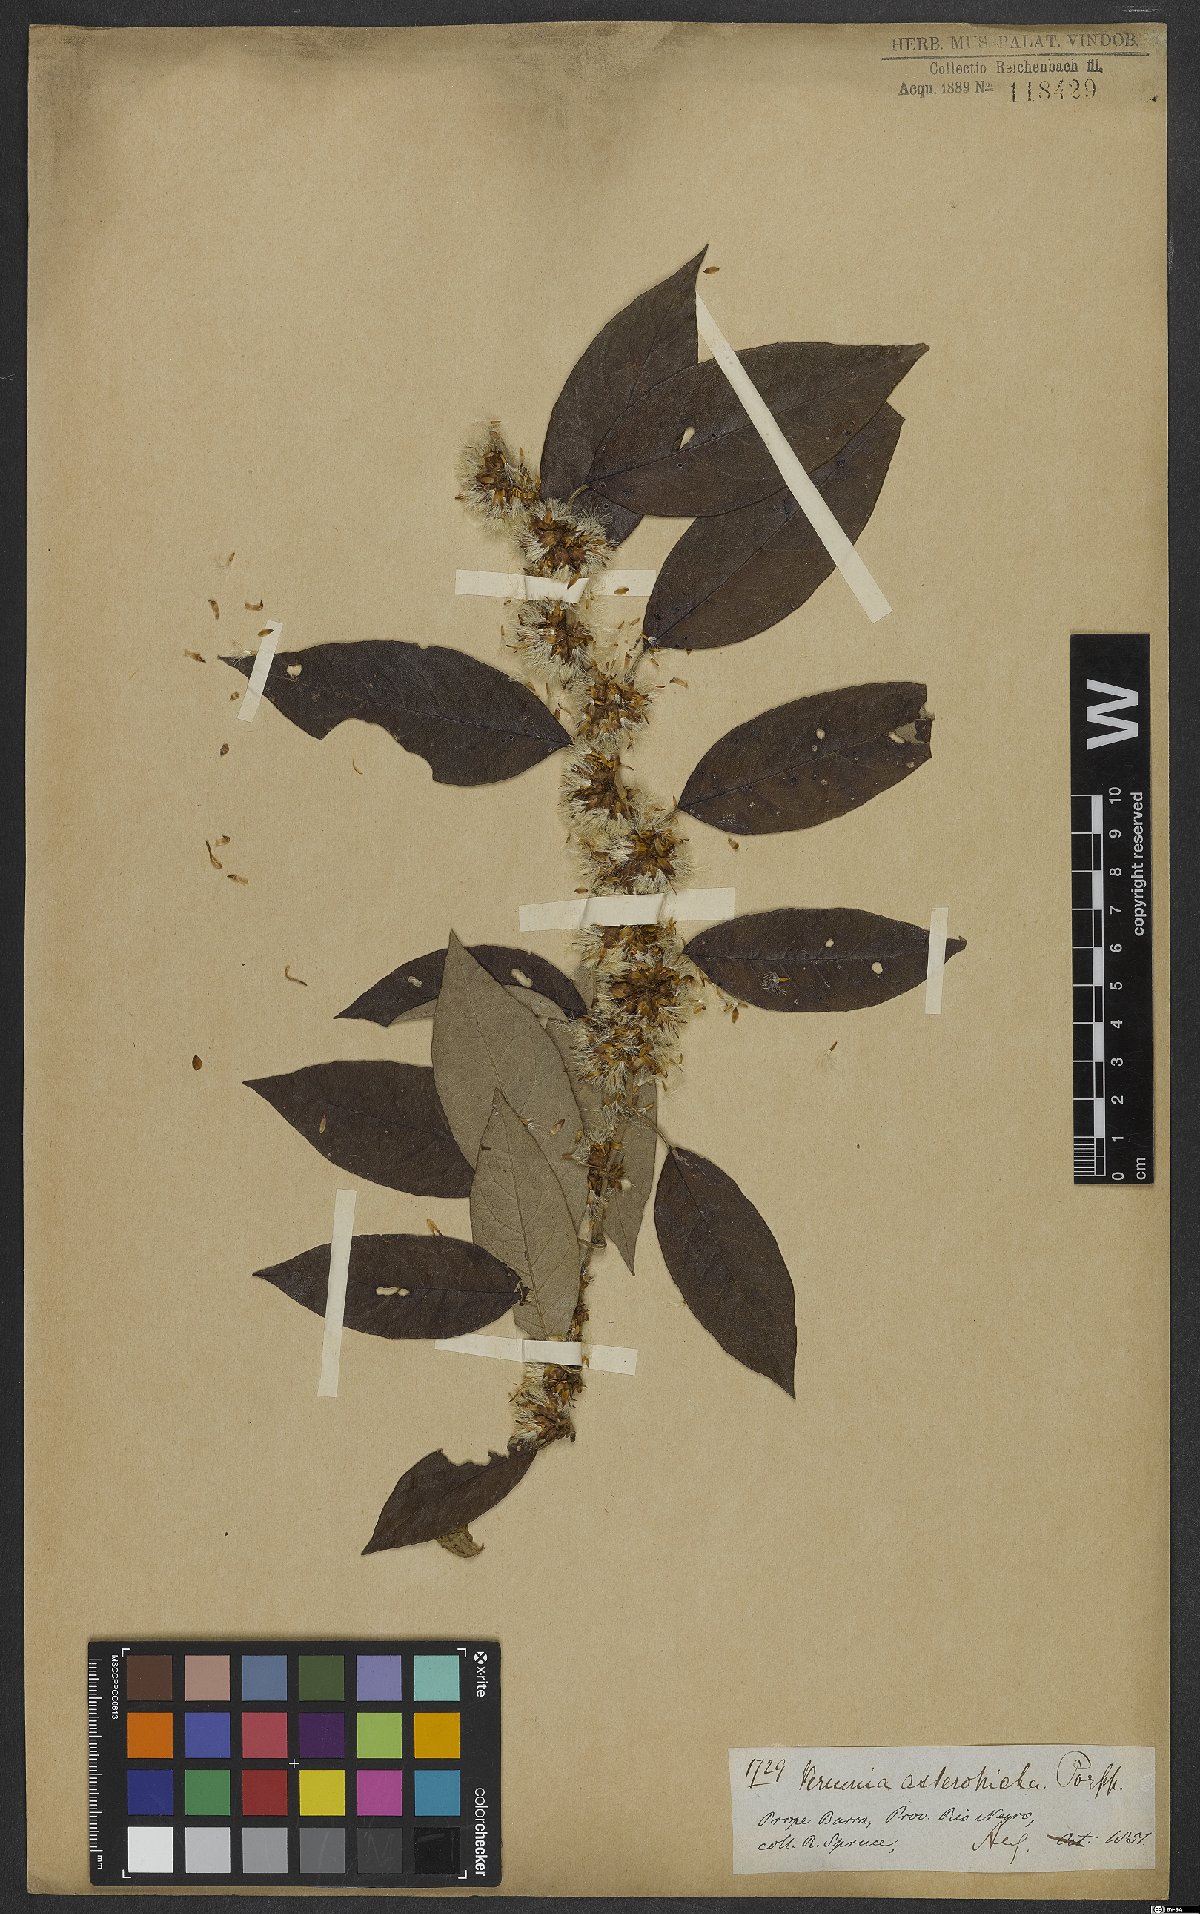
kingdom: Plantae
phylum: Tracheophyta
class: Magnoliopsida
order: Asterales
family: Asteraceae
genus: Piptocarpha
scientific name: Piptocarpha asterotrichia
